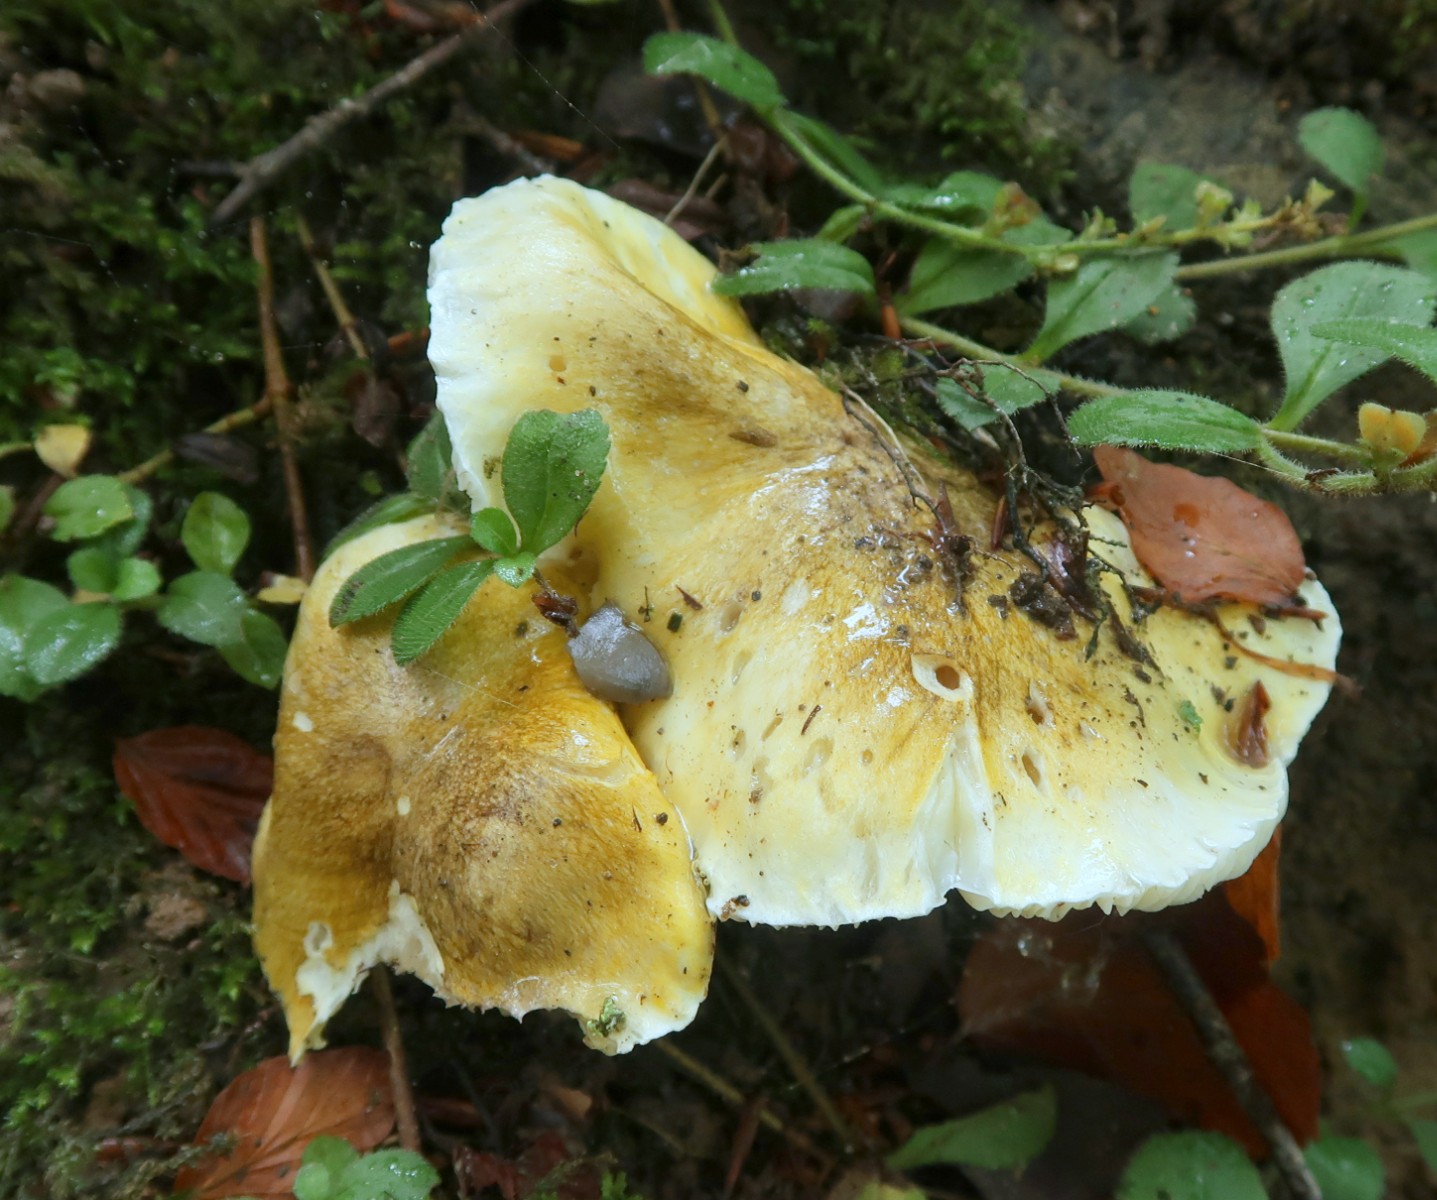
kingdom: Fungi
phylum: Basidiomycota
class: Agaricomycetes
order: Agaricales
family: Tricholomataceae
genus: Tricholoma
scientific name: Tricholoma sejunctum
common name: grøngul ridderhat
